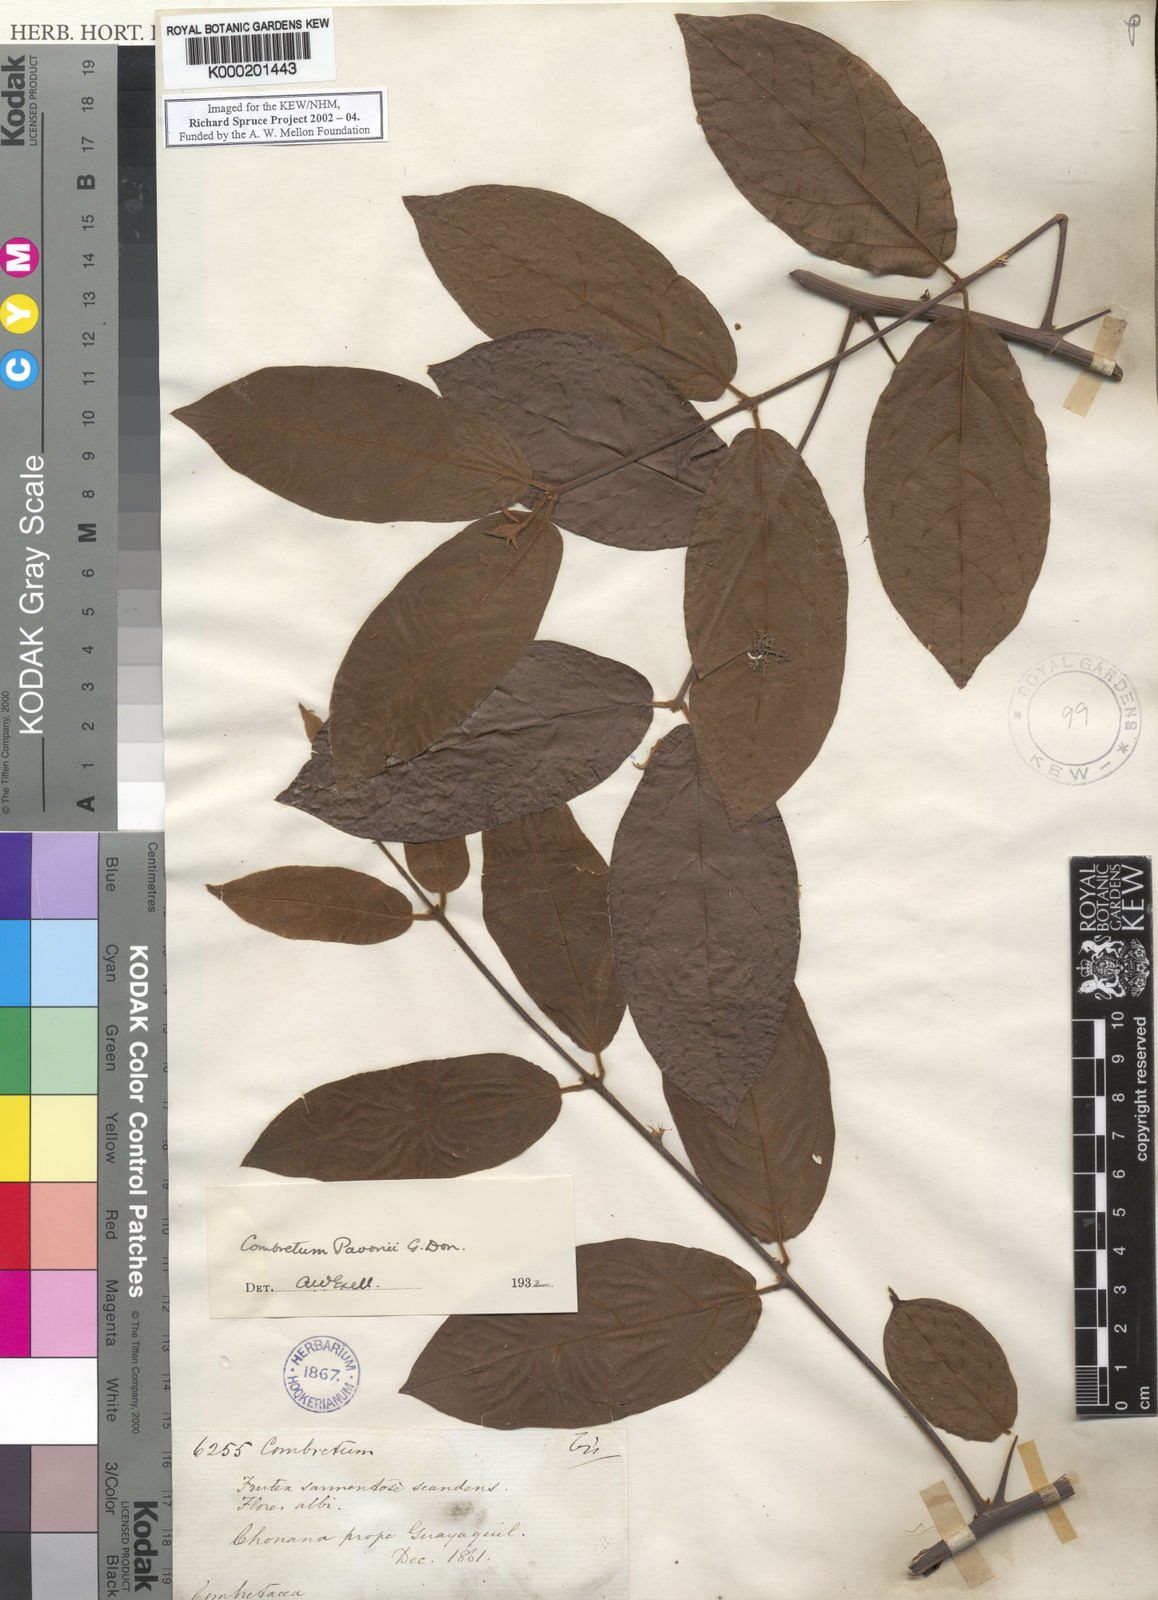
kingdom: Plantae
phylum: Tracheophyta
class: Magnoliopsida
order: Myrtales
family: Combretaceae
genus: Combretum
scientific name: Combretum pavonii
